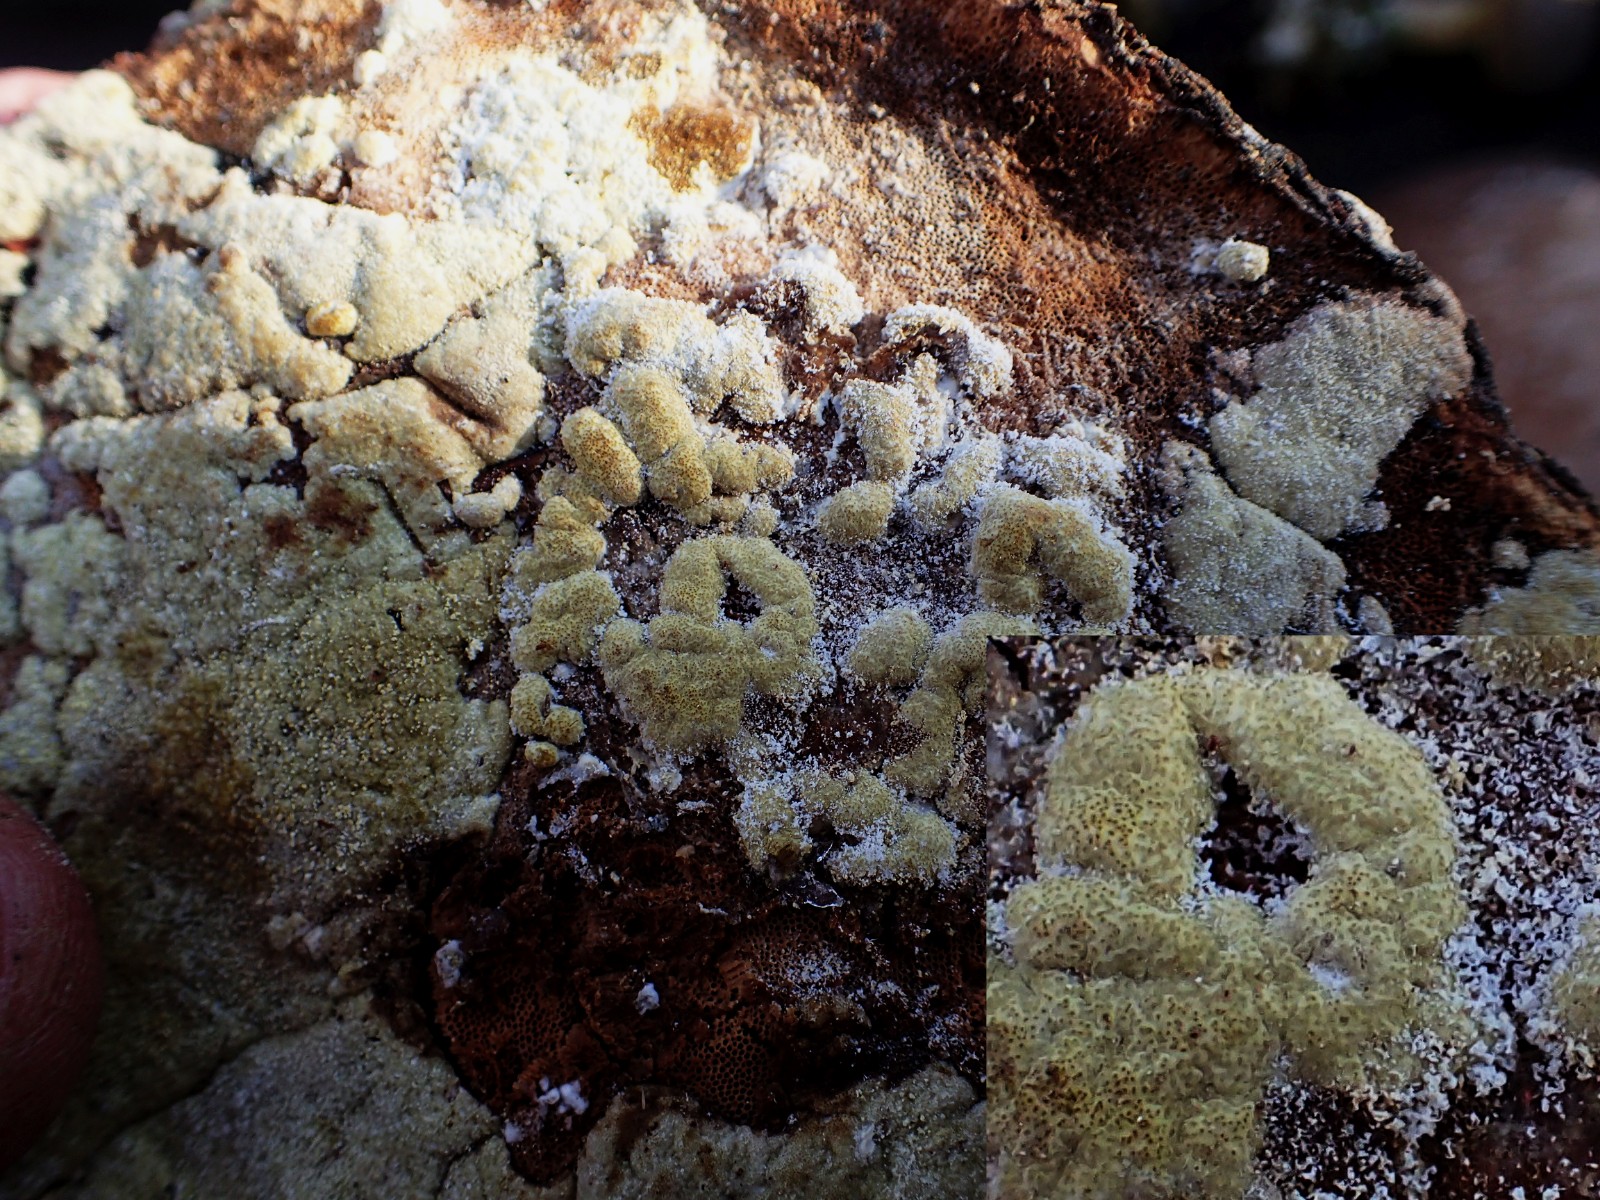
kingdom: Fungi
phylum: Ascomycota
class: Sordariomycetes
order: Hypocreales
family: Hypocreaceae
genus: Trichoderma
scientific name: Trichoderma pulvinatum
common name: snyltende kødkerne
